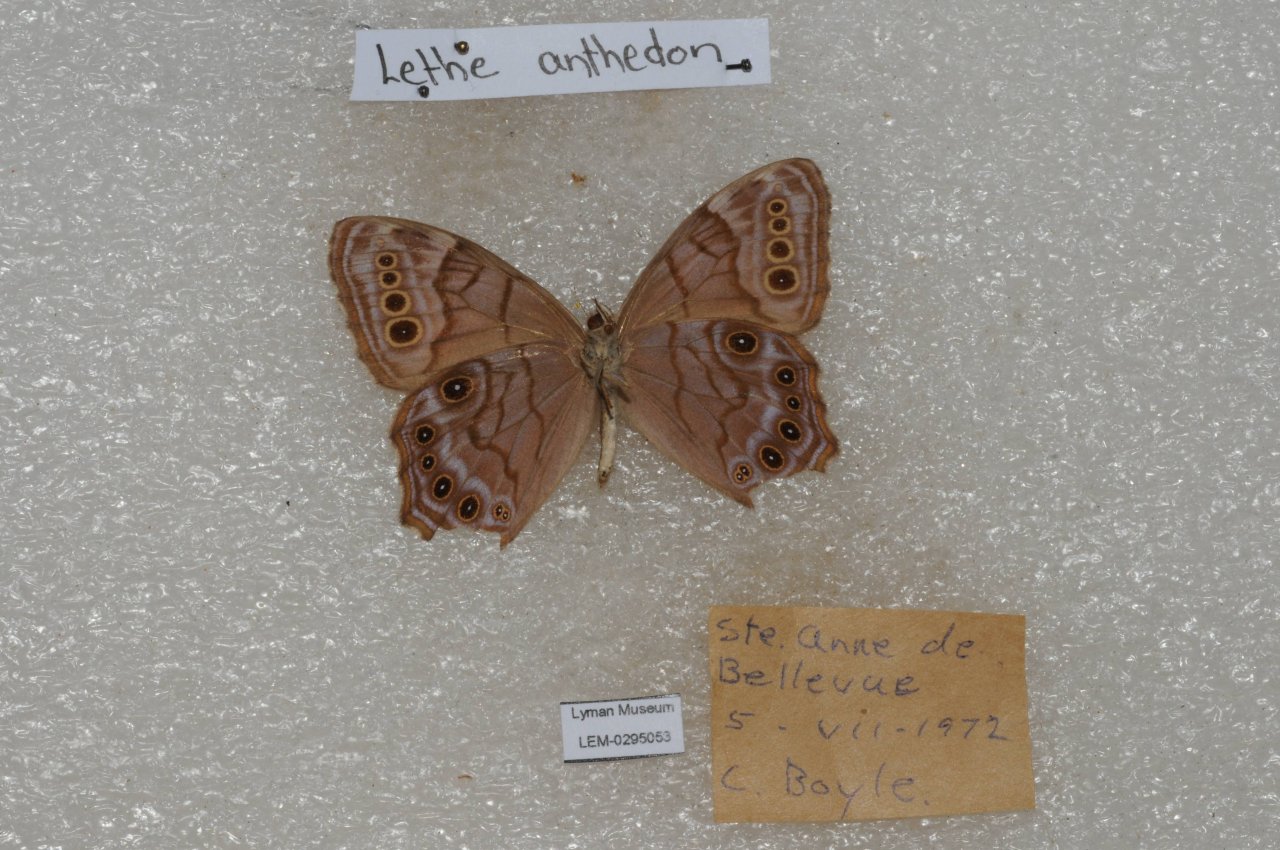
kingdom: Animalia
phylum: Arthropoda
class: Insecta
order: Lepidoptera
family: Nymphalidae
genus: Lethe
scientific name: Lethe anthedon
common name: Northern Pearly-Eye
